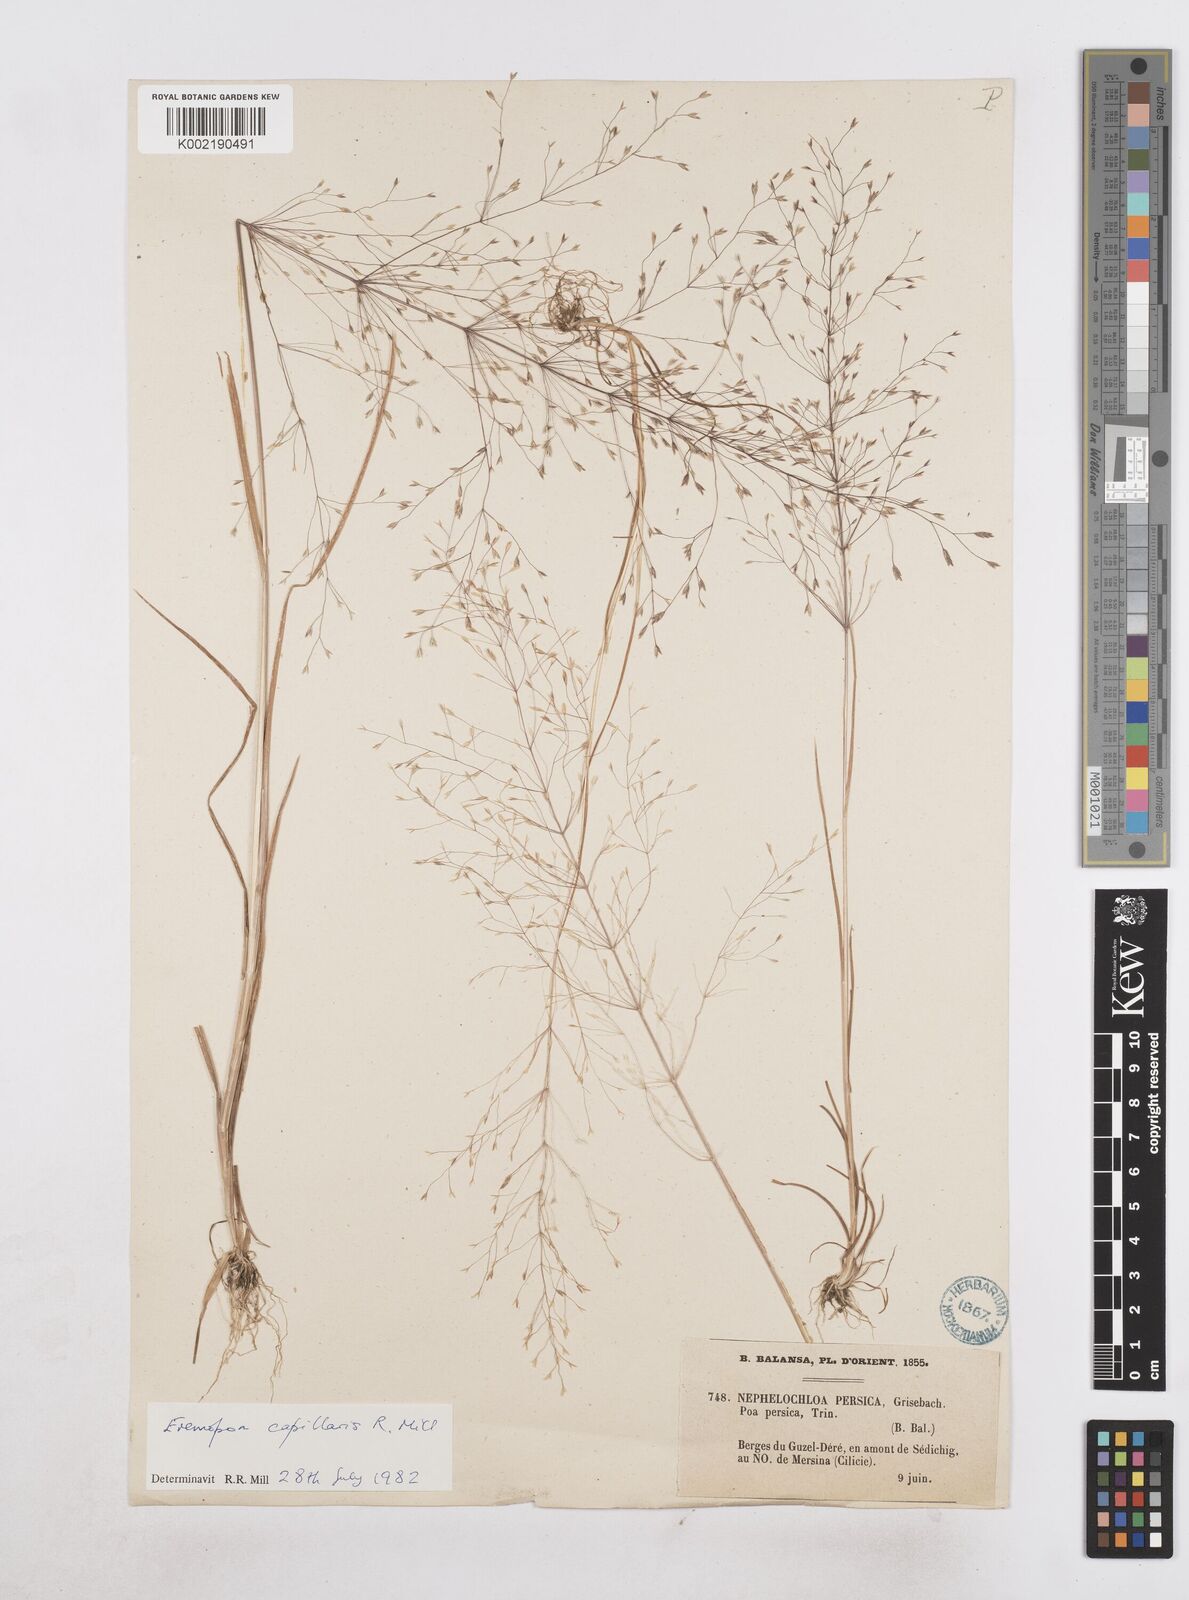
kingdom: Plantae
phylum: Tracheophyta
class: Liliopsida
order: Poales
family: Poaceae
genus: Poa
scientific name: Poa millii
